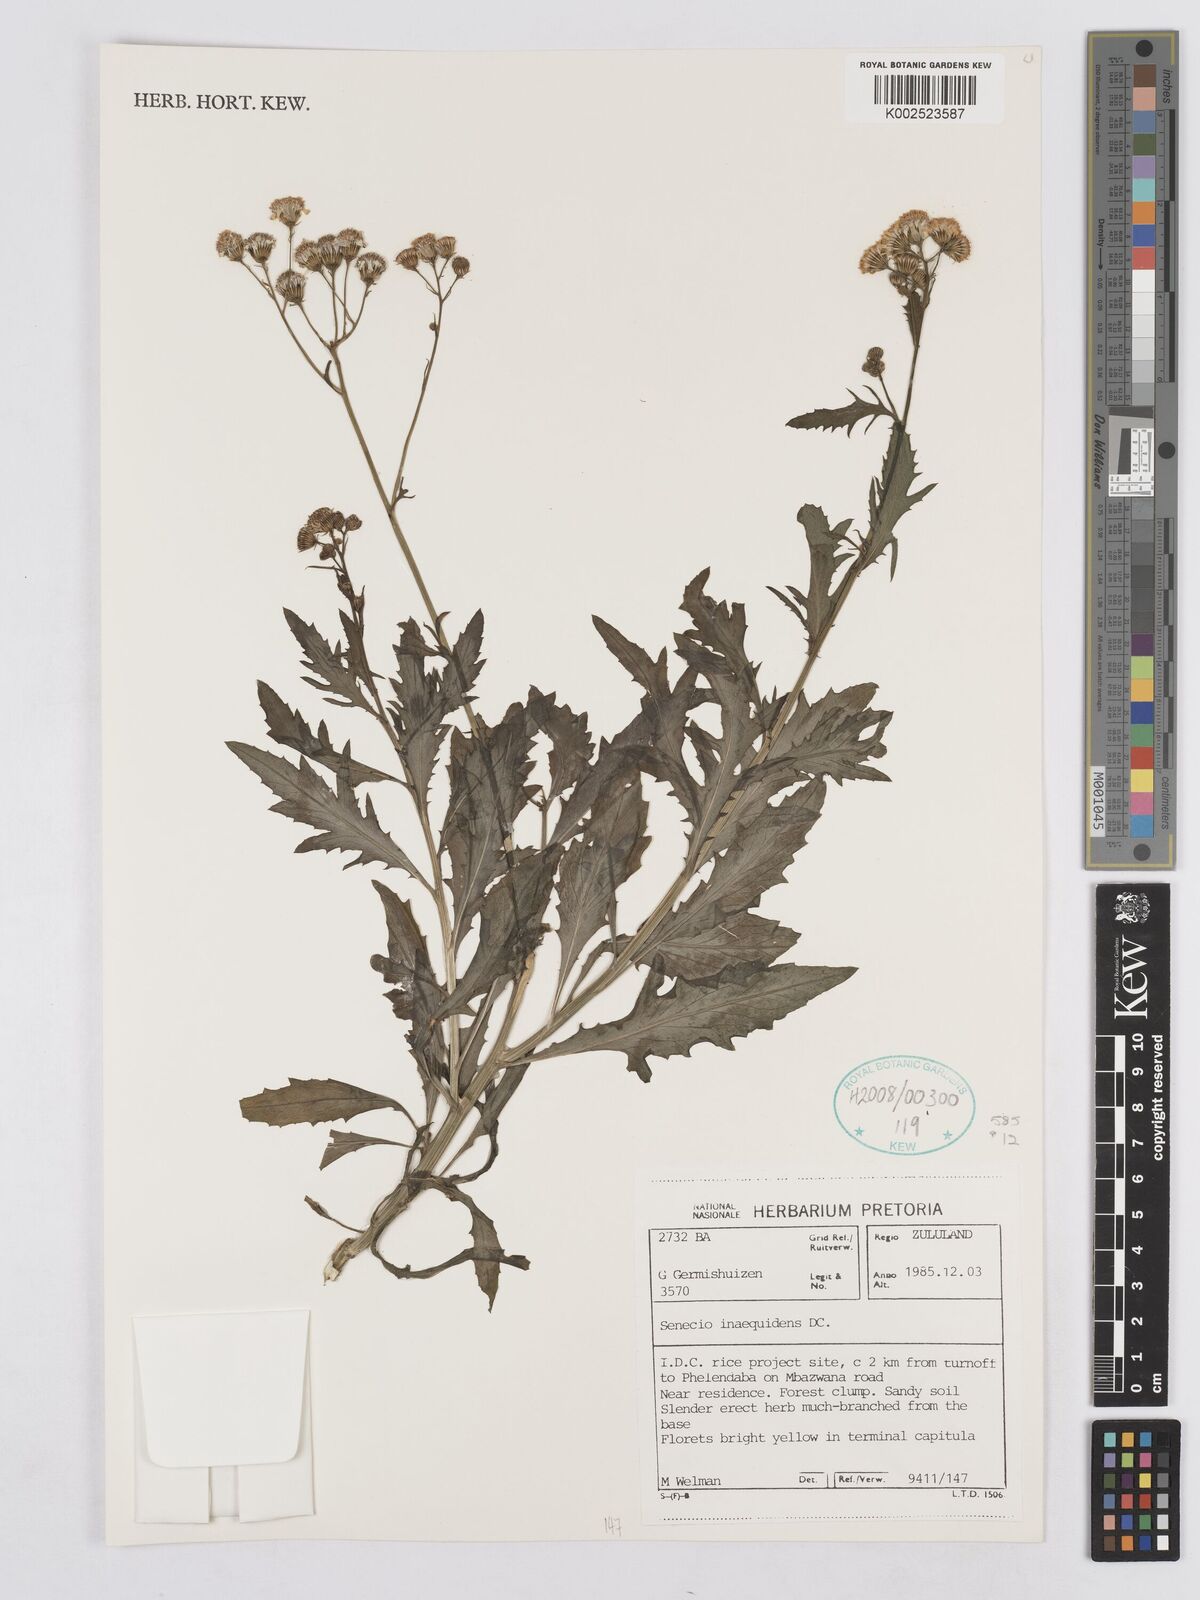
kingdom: Plantae
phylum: Tracheophyta
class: Magnoliopsida
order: Asterales
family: Asteraceae
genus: Senecio
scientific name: Senecio inaequidens
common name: Narrow-leaved ragwort
